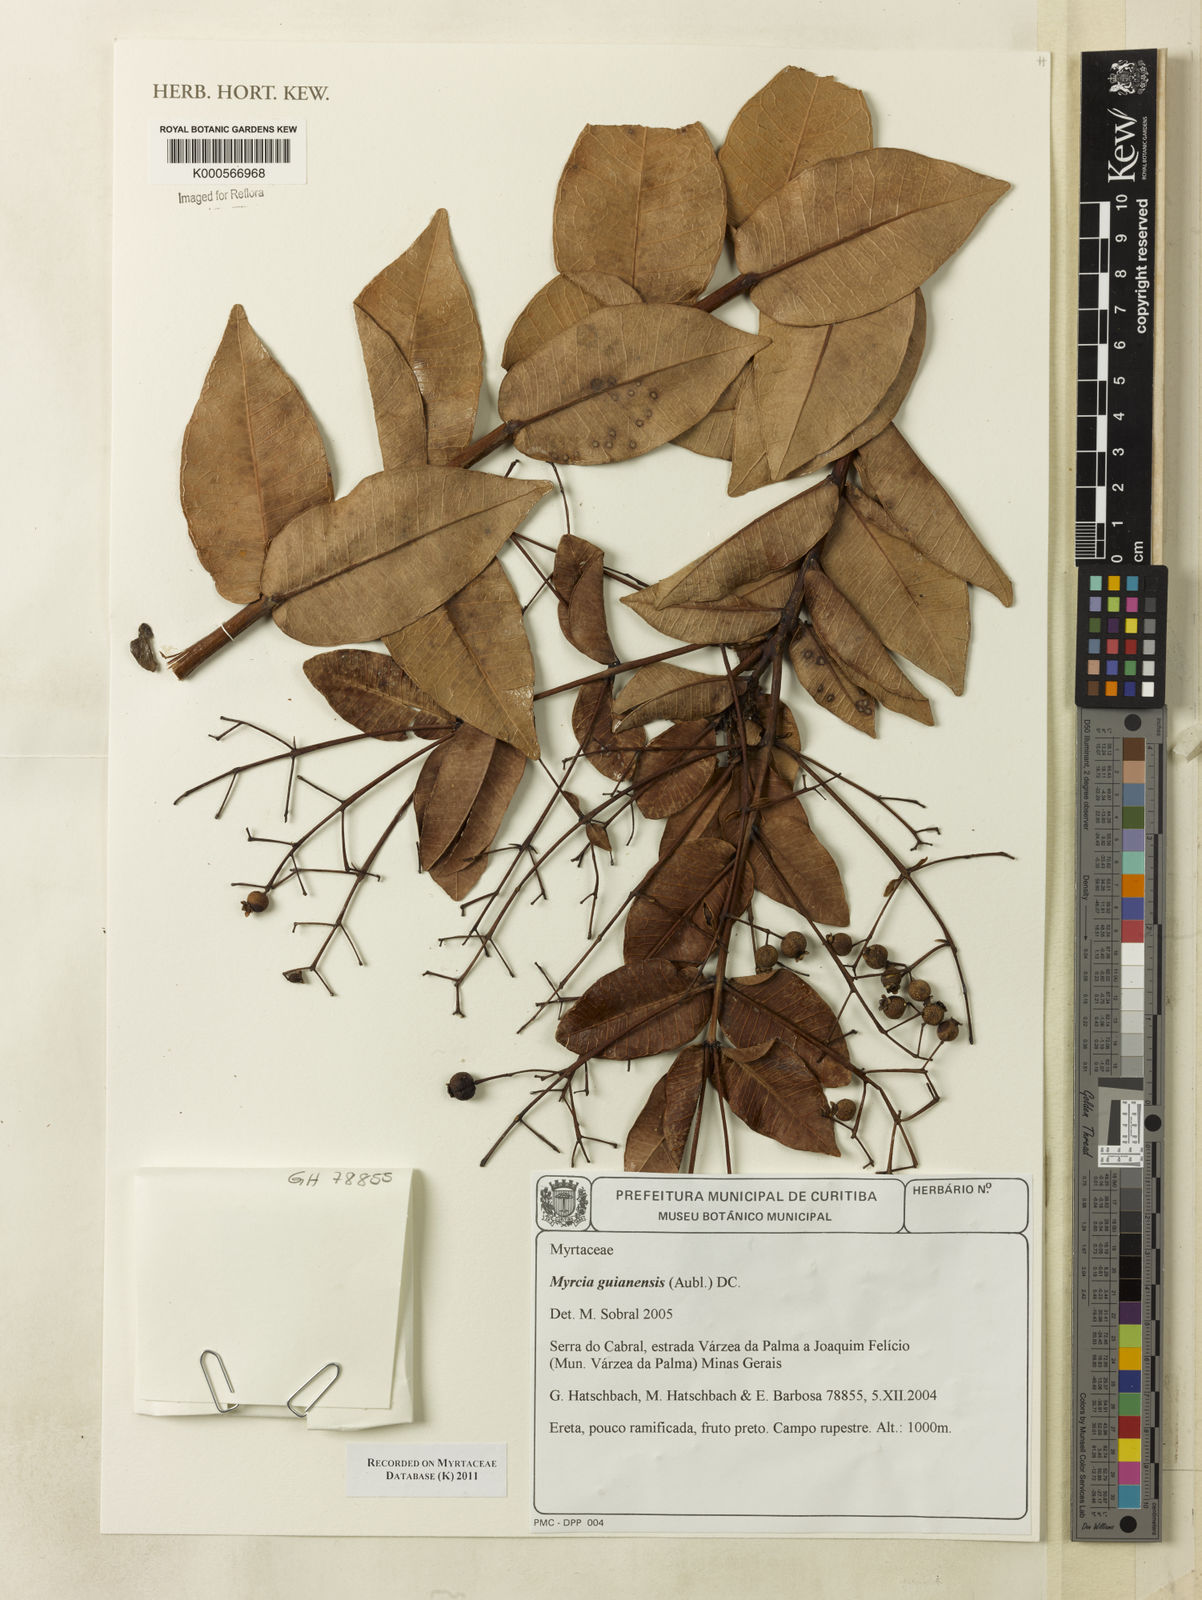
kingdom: Plantae
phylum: Tracheophyta
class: Magnoliopsida
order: Myrtales
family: Myrtaceae
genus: Myrcia
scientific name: Myrcia variabilis
